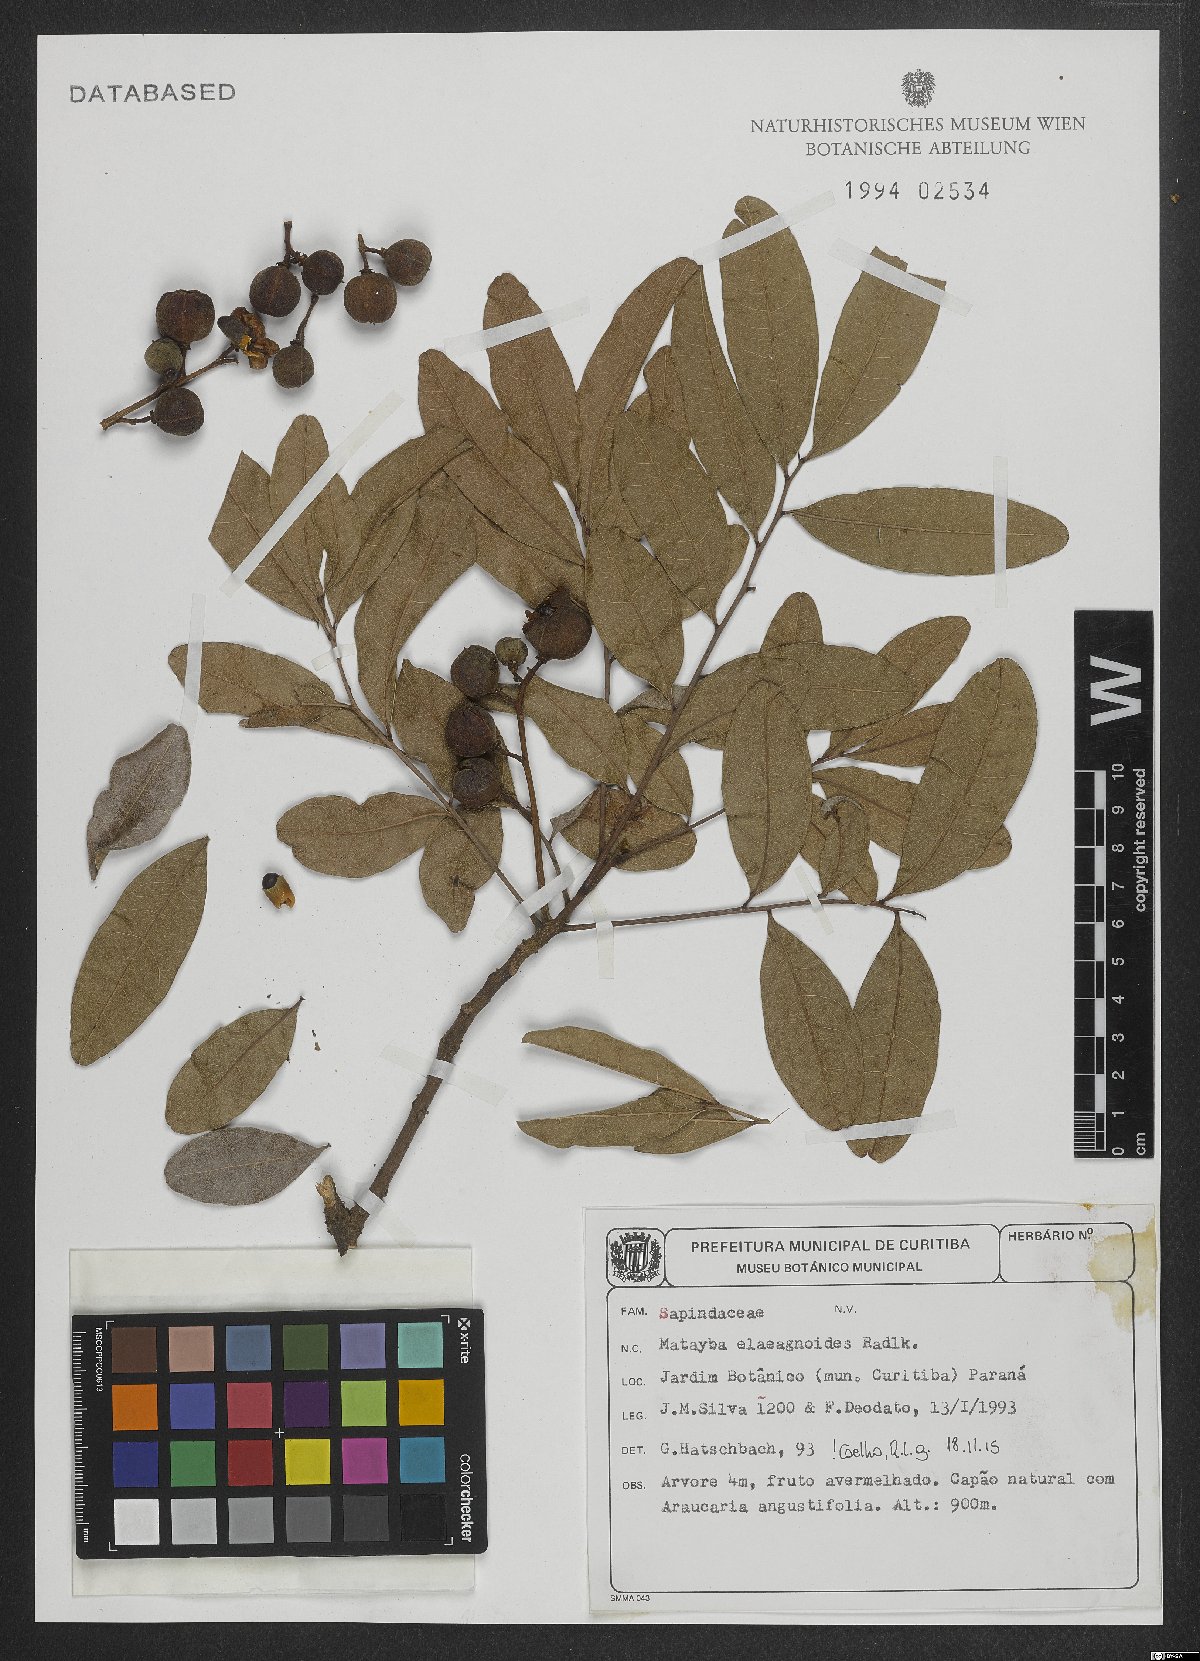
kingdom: Plantae
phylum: Tracheophyta
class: Magnoliopsida
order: Sapindales
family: Sapindaceae
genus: Matayba
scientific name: Matayba elaeagnoides
